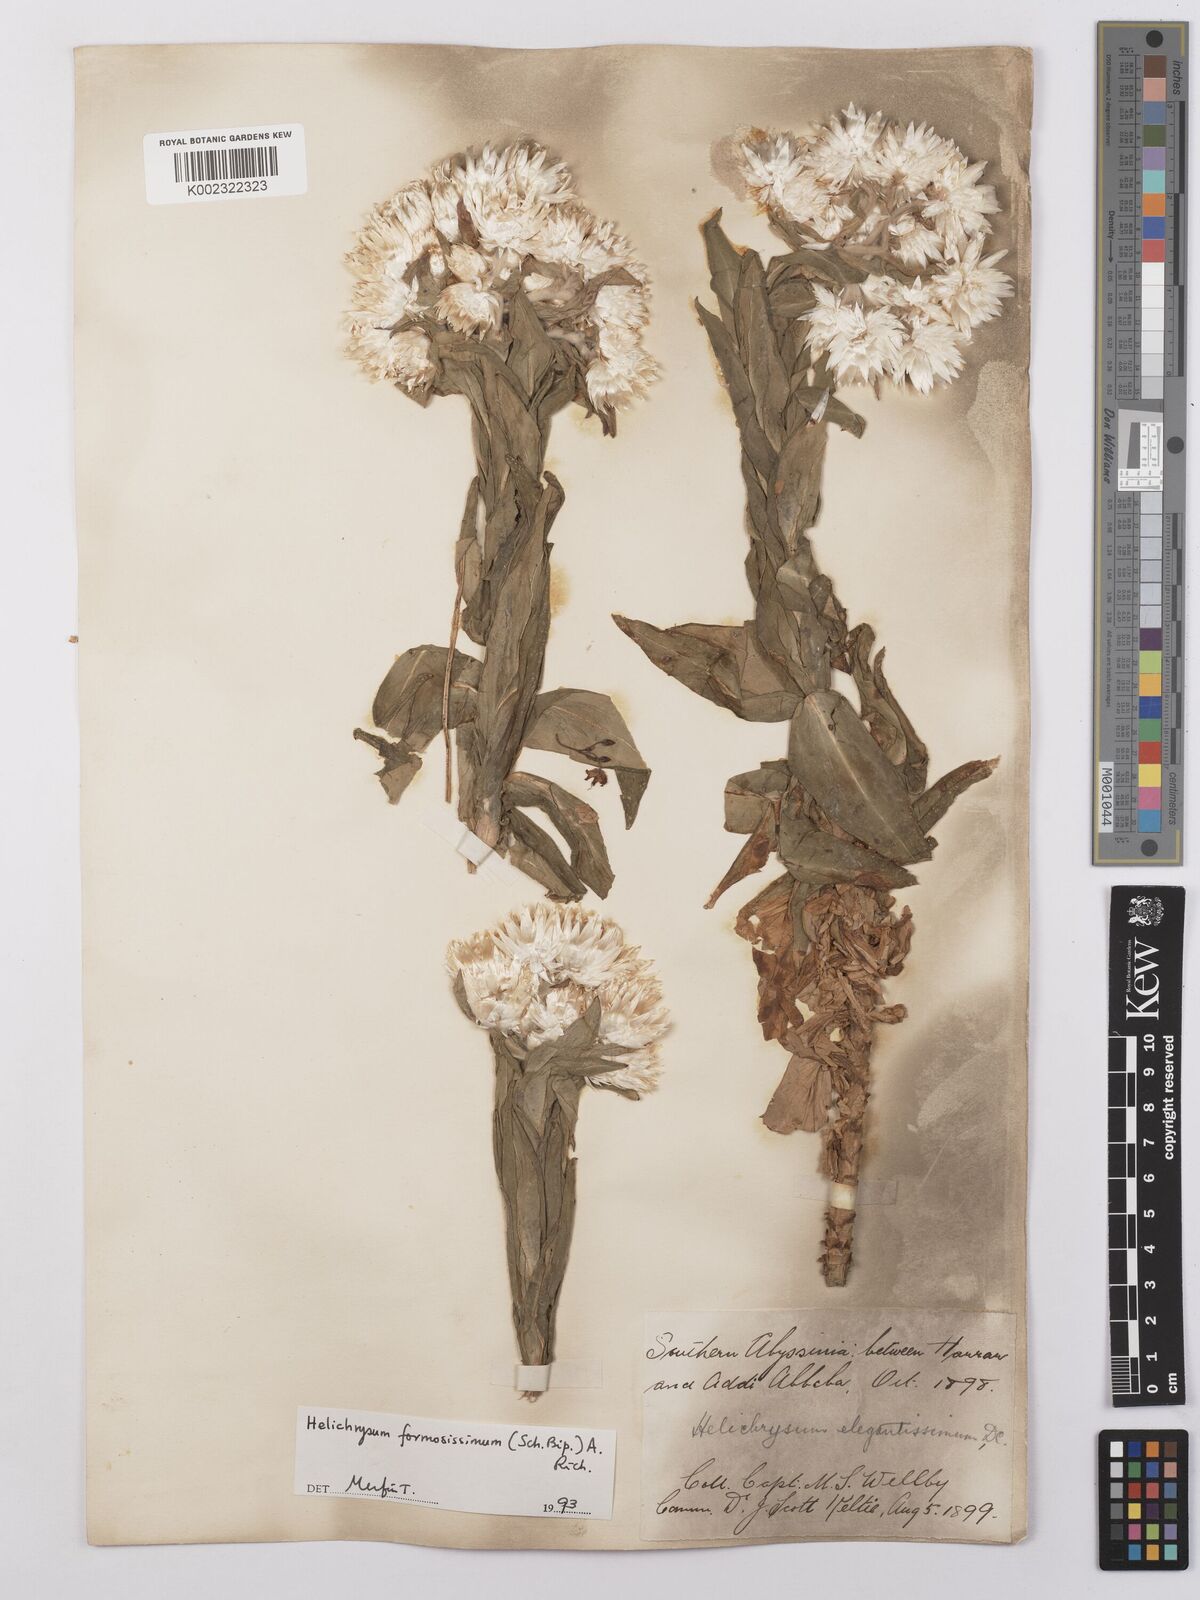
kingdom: Plantae
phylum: Tracheophyta
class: Magnoliopsida
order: Asterales
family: Asteraceae
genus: Helichrysum
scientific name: Helichrysum formosissimum
